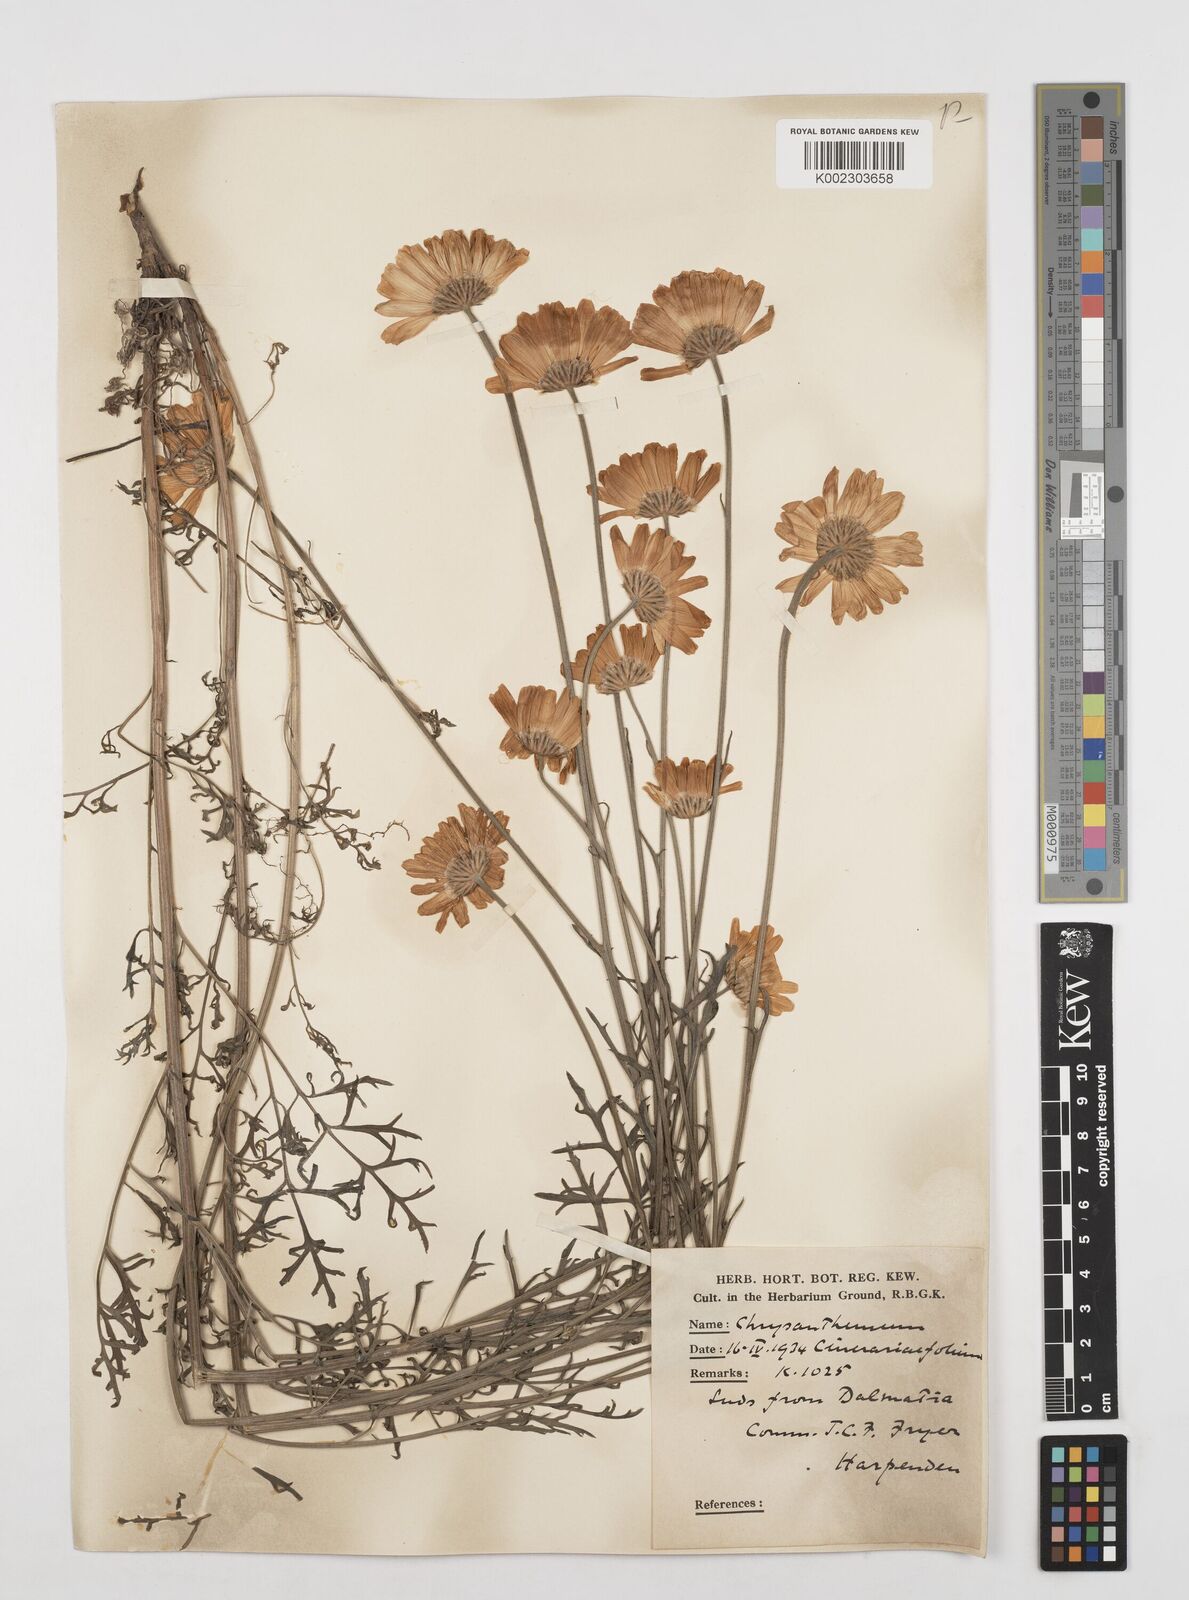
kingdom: Plantae
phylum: Tracheophyta
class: Magnoliopsida
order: Asterales
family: Asteraceae
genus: Tanacetum
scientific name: Tanacetum cinerariifolium
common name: Dalmatian pyrethrum
